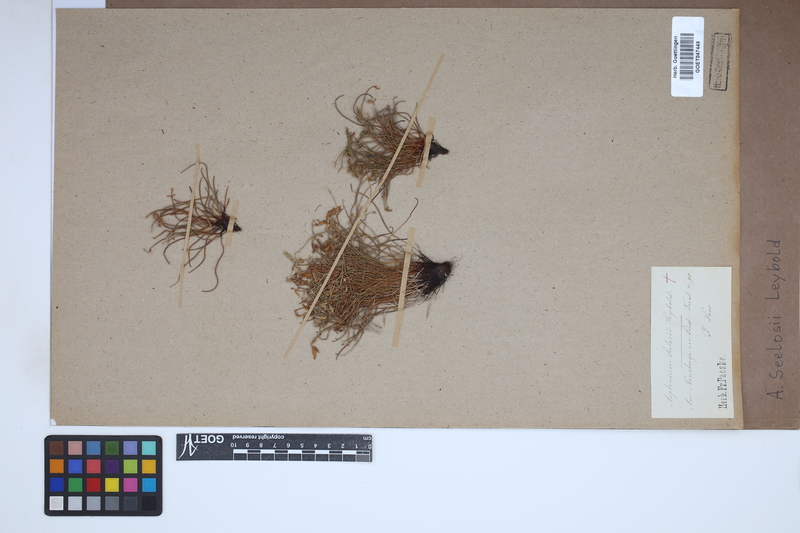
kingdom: Plantae
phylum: Tracheophyta
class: Polypodiopsida
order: Polypodiales
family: Aspleniaceae
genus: Asplenium
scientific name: Asplenium seelosii
